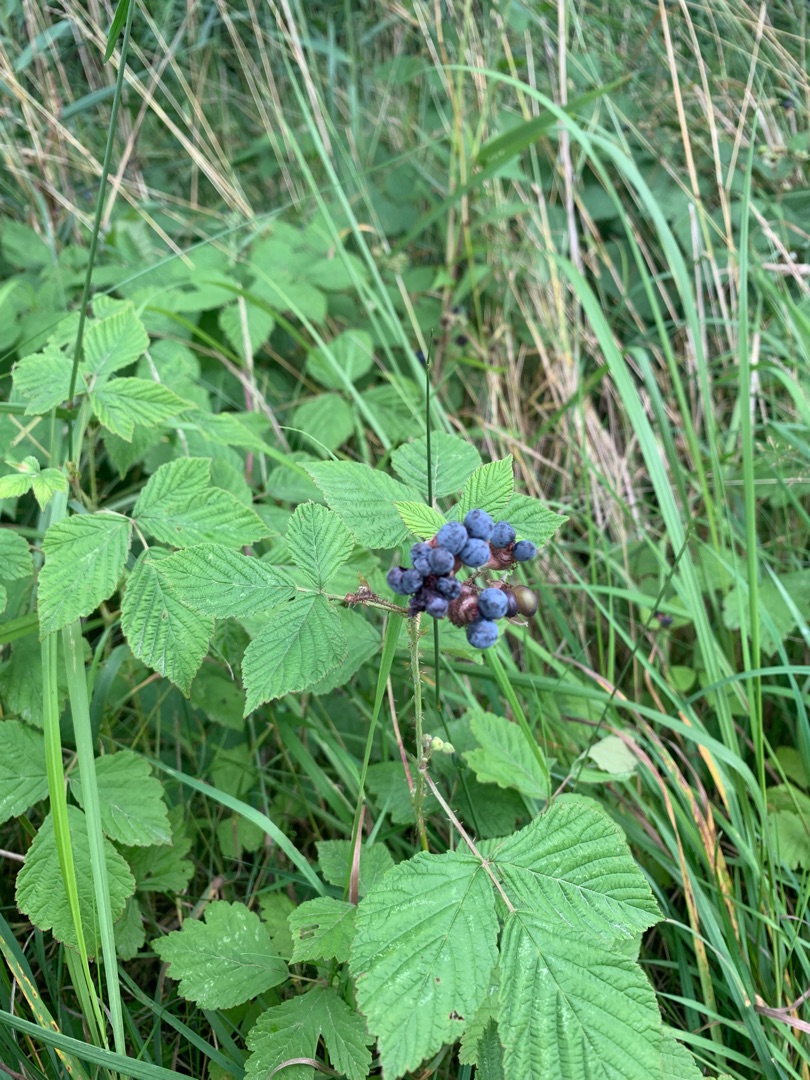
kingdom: Plantae
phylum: Tracheophyta
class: Magnoliopsida
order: Rosales
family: Rosaceae
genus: Rubus
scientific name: Rubus caesius
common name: Korbær
